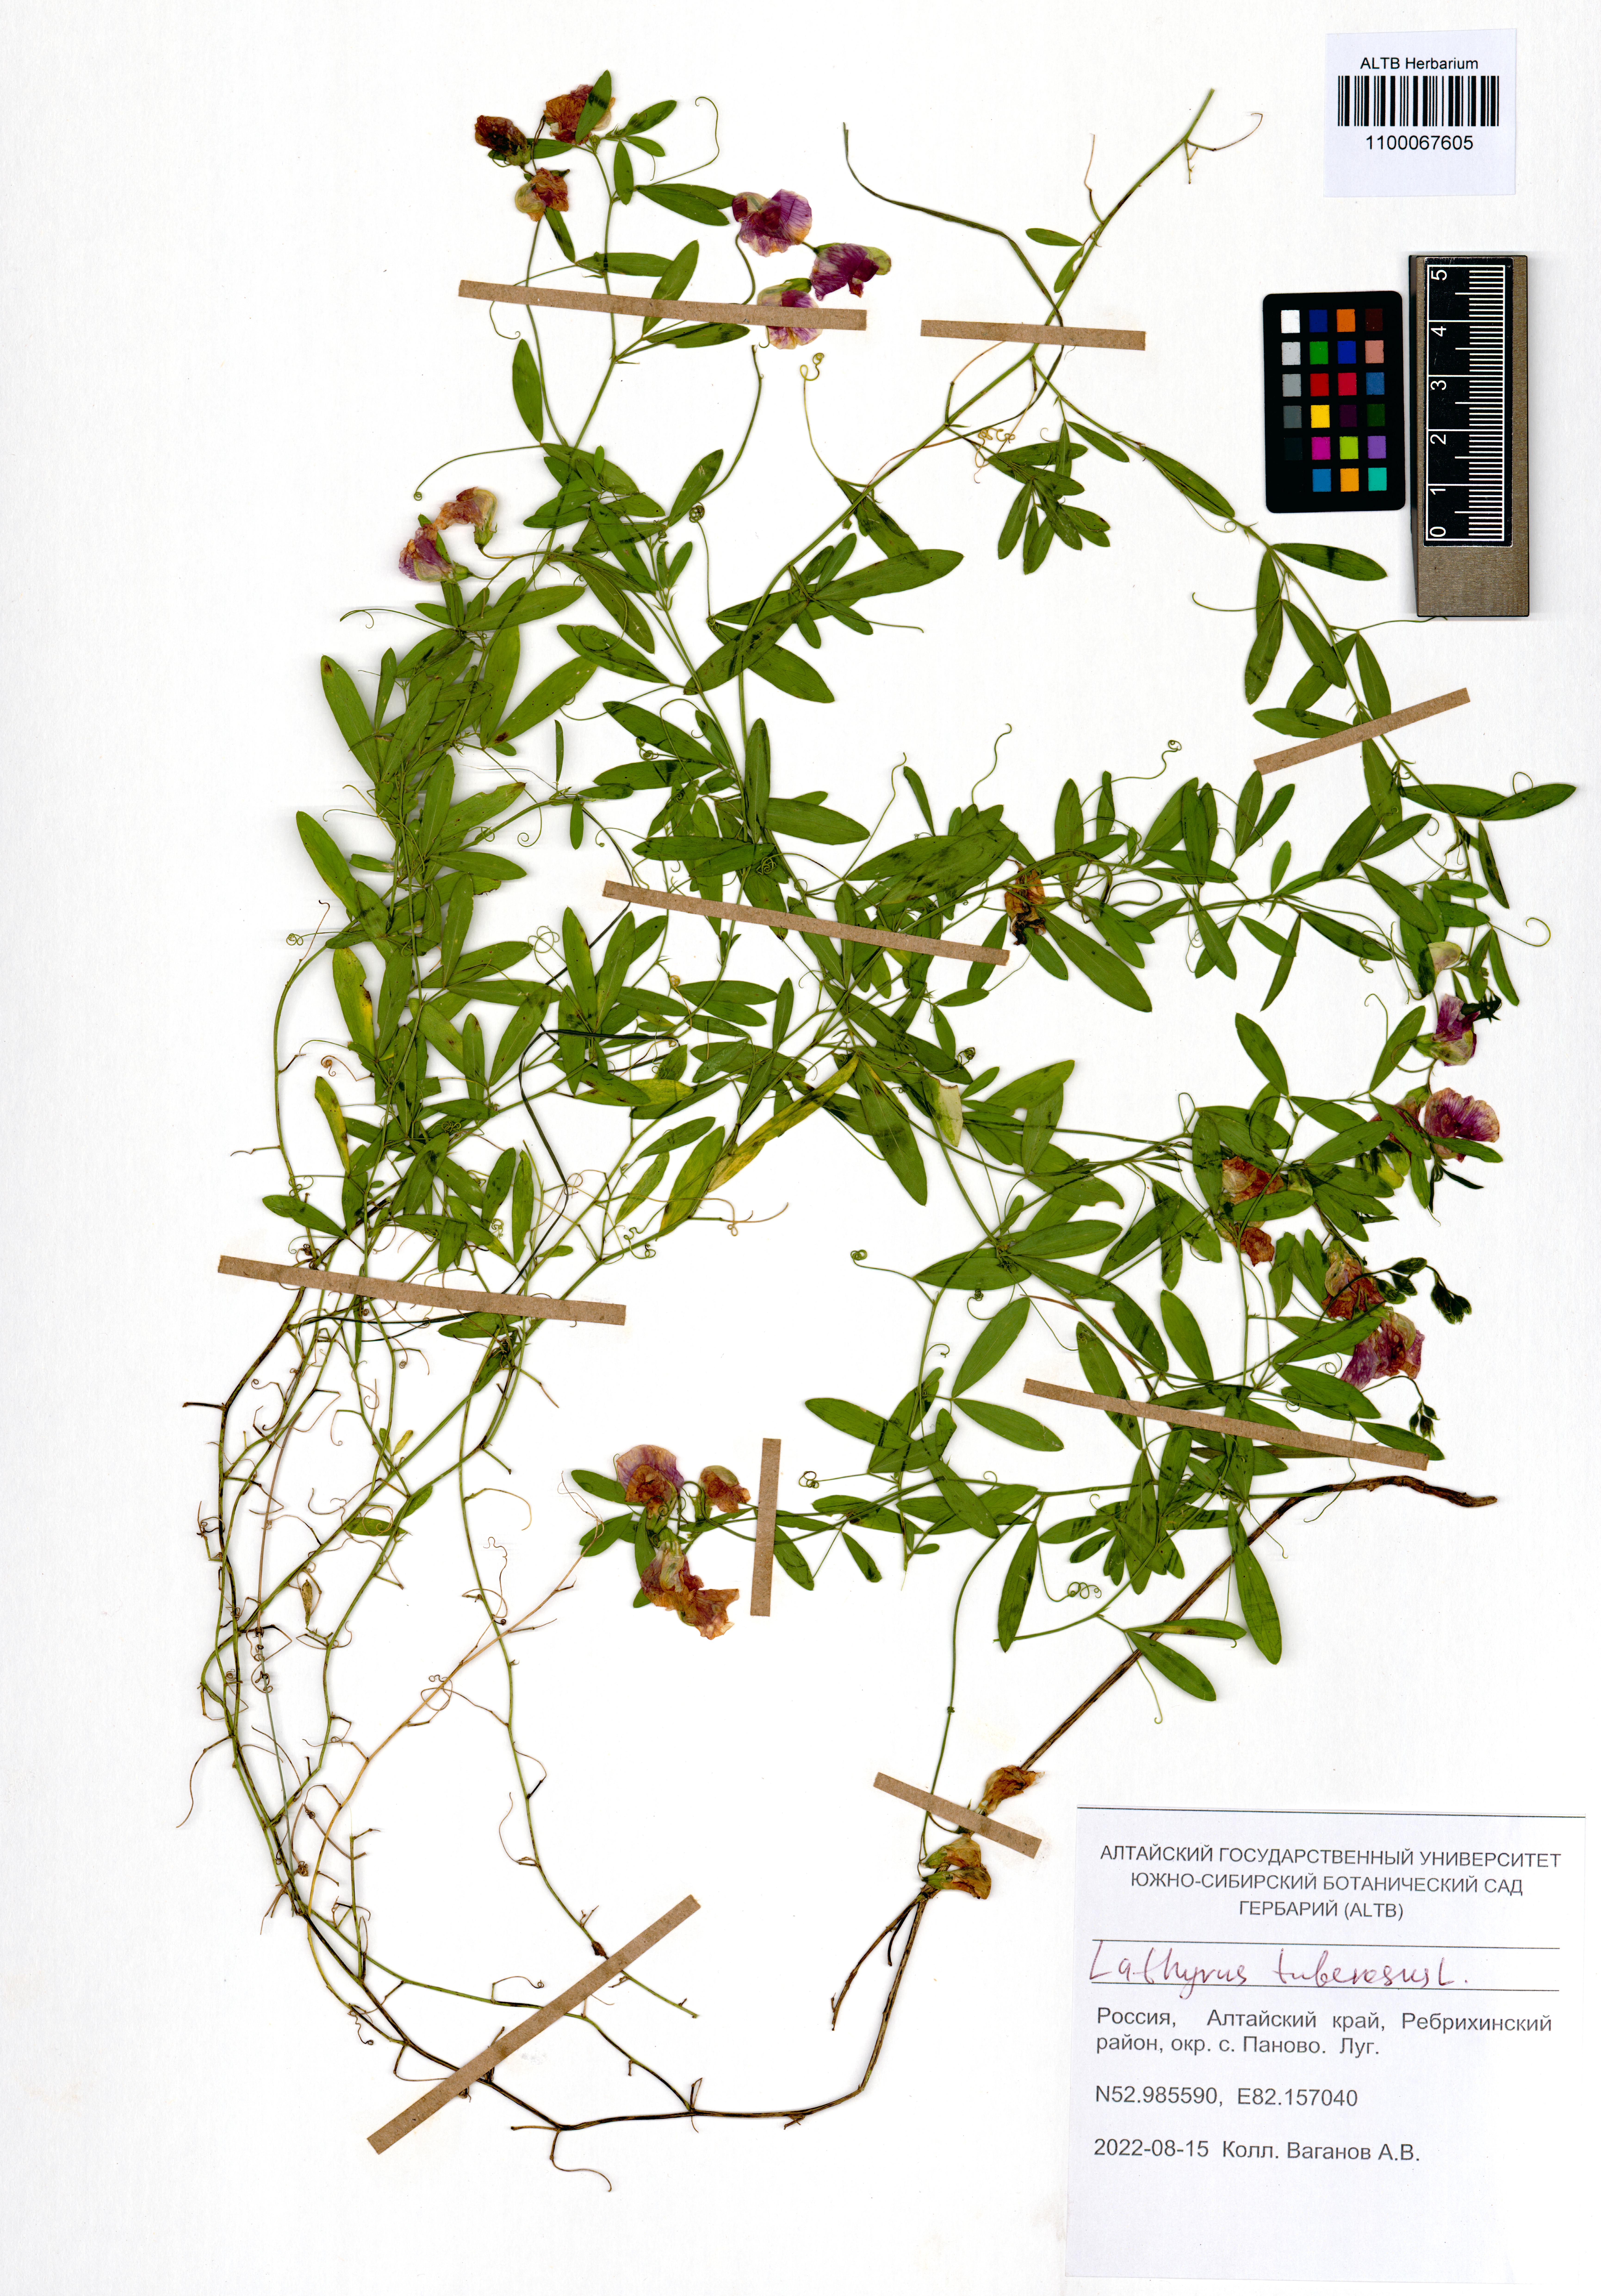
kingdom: Plantae
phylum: Tracheophyta
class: Magnoliopsida
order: Fabales
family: Fabaceae
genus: Lathyrus
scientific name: Lathyrus tuberosus
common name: Tuberous pea
